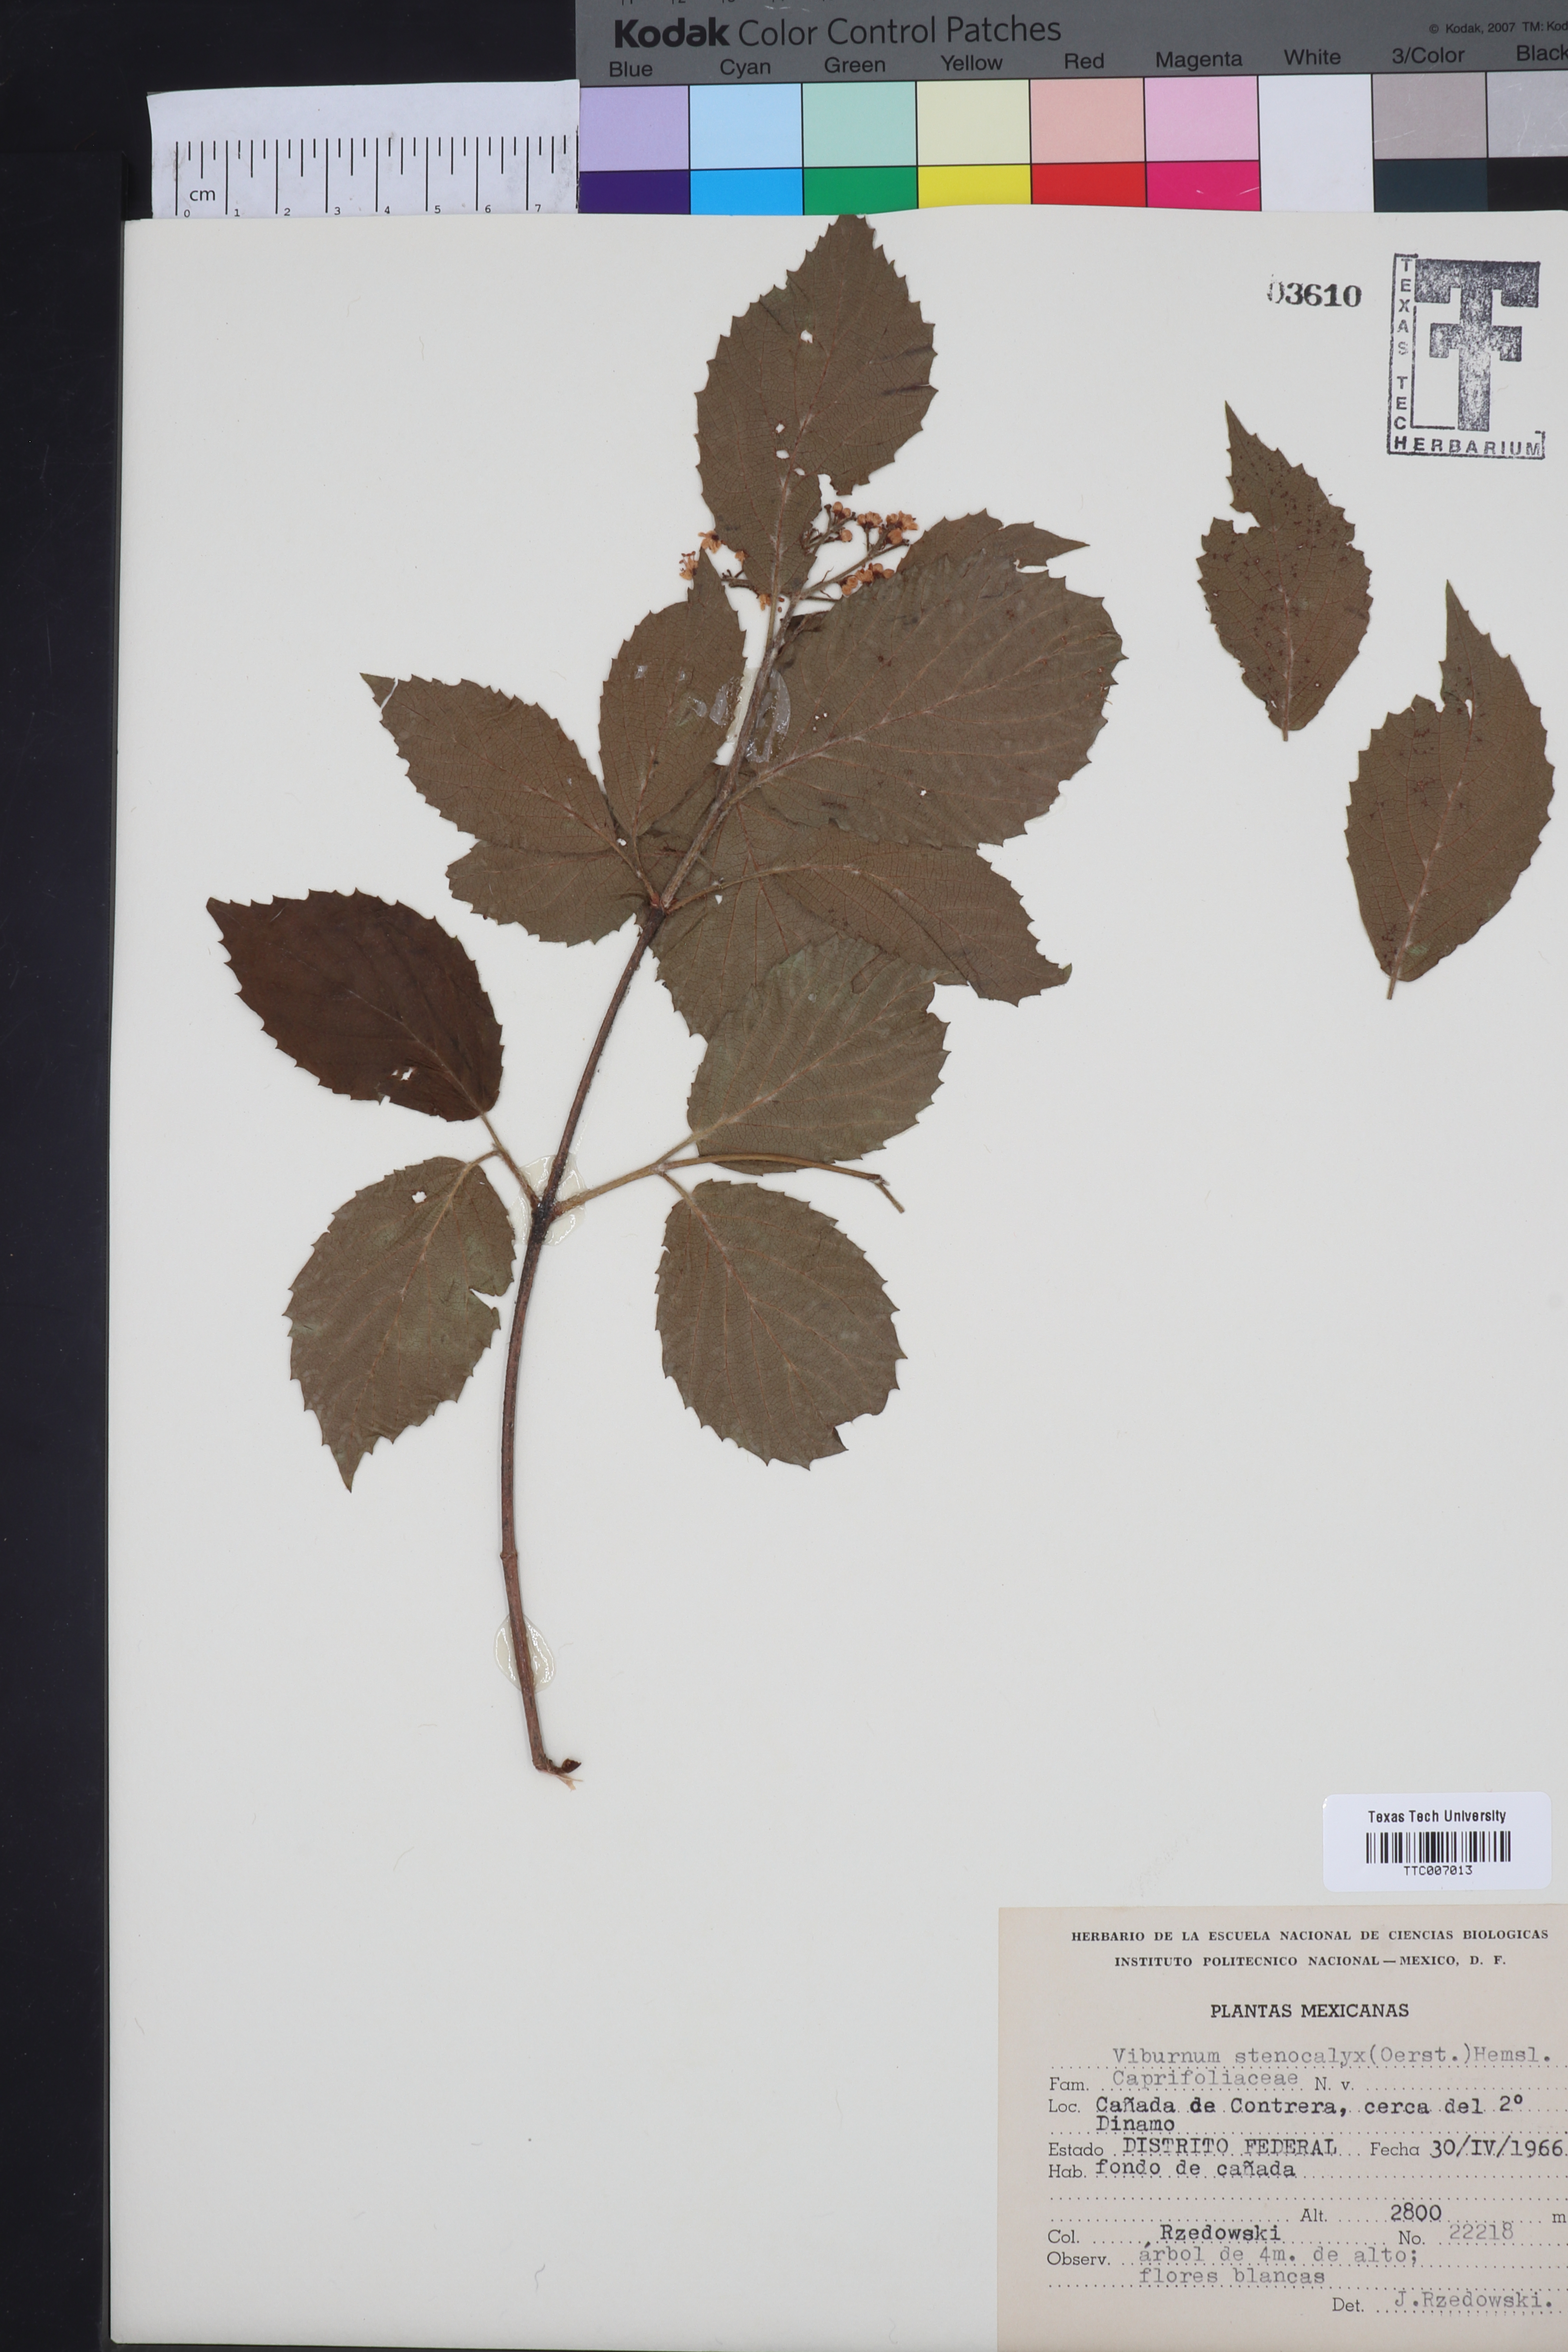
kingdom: Plantae
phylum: Tracheophyta
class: Magnoliopsida
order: Dipsacales
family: Viburnaceae
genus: Viburnum
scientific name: Viburnum stenocalyx
